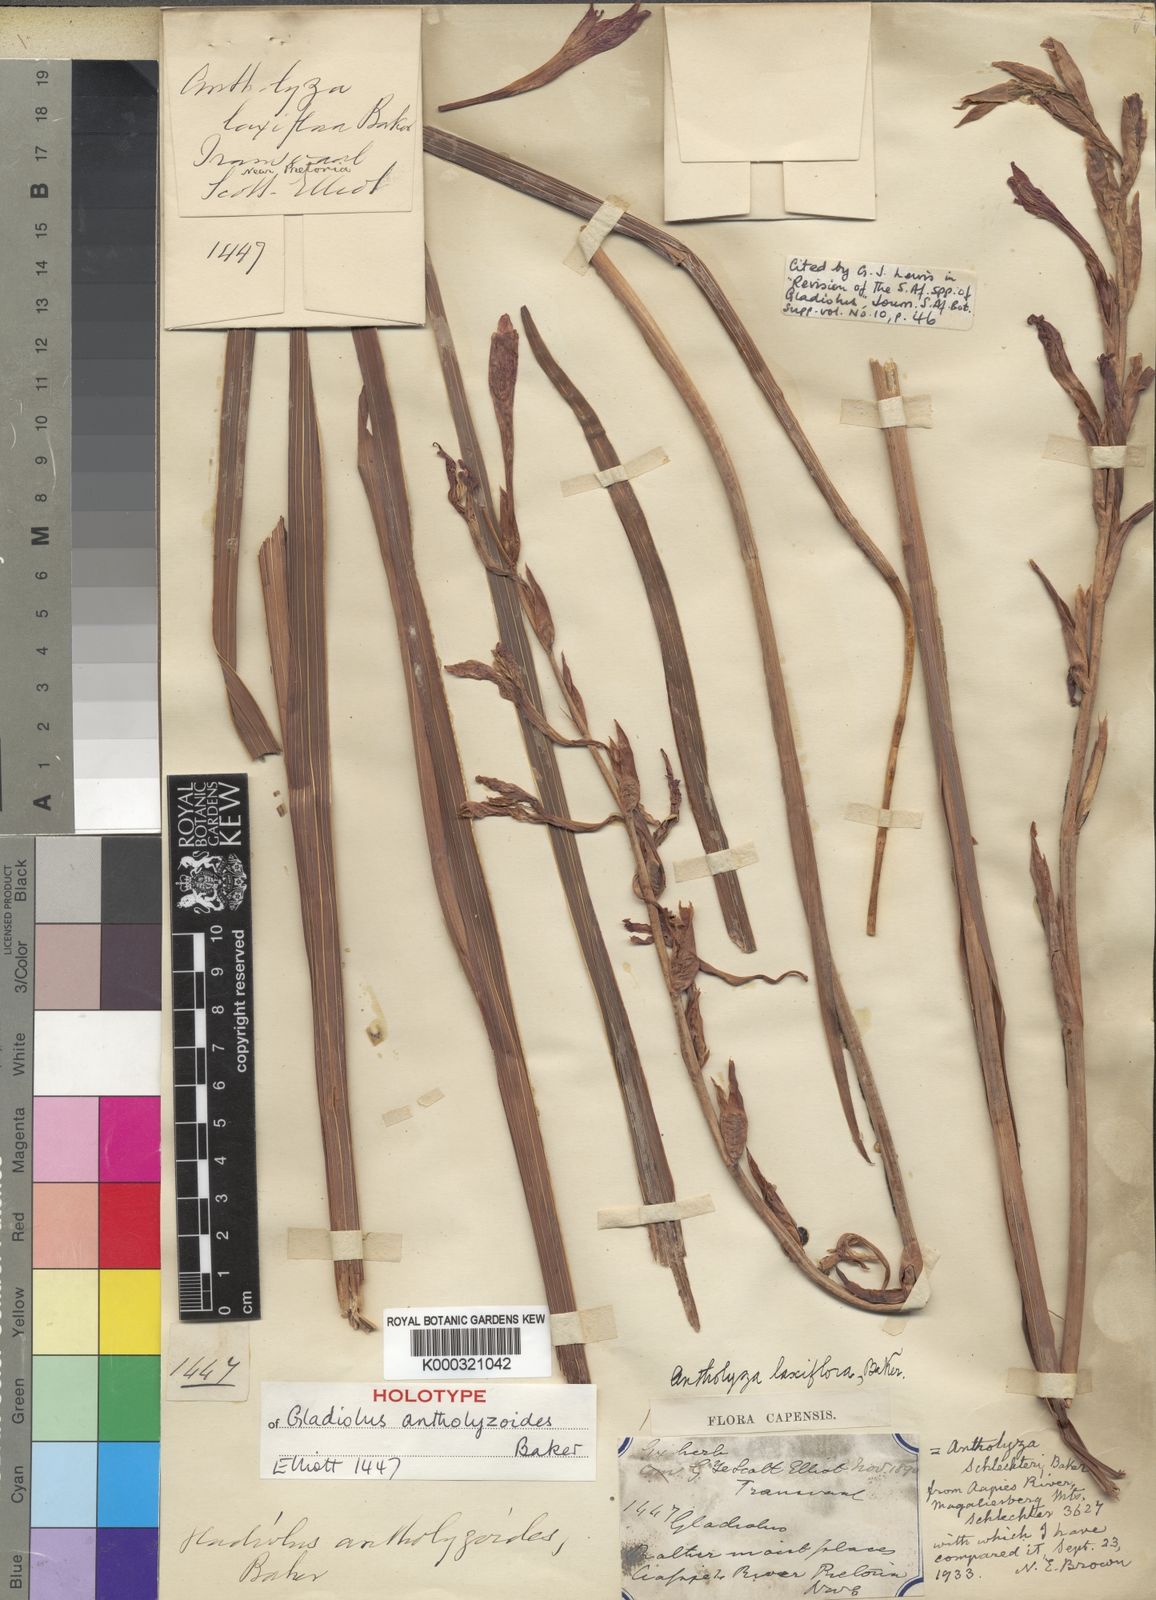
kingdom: Plantae
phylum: Tracheophyta
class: Liliopsida
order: Asparagales
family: Iridaceae
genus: Gladiolus
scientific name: Gladiolus antholyzoides
